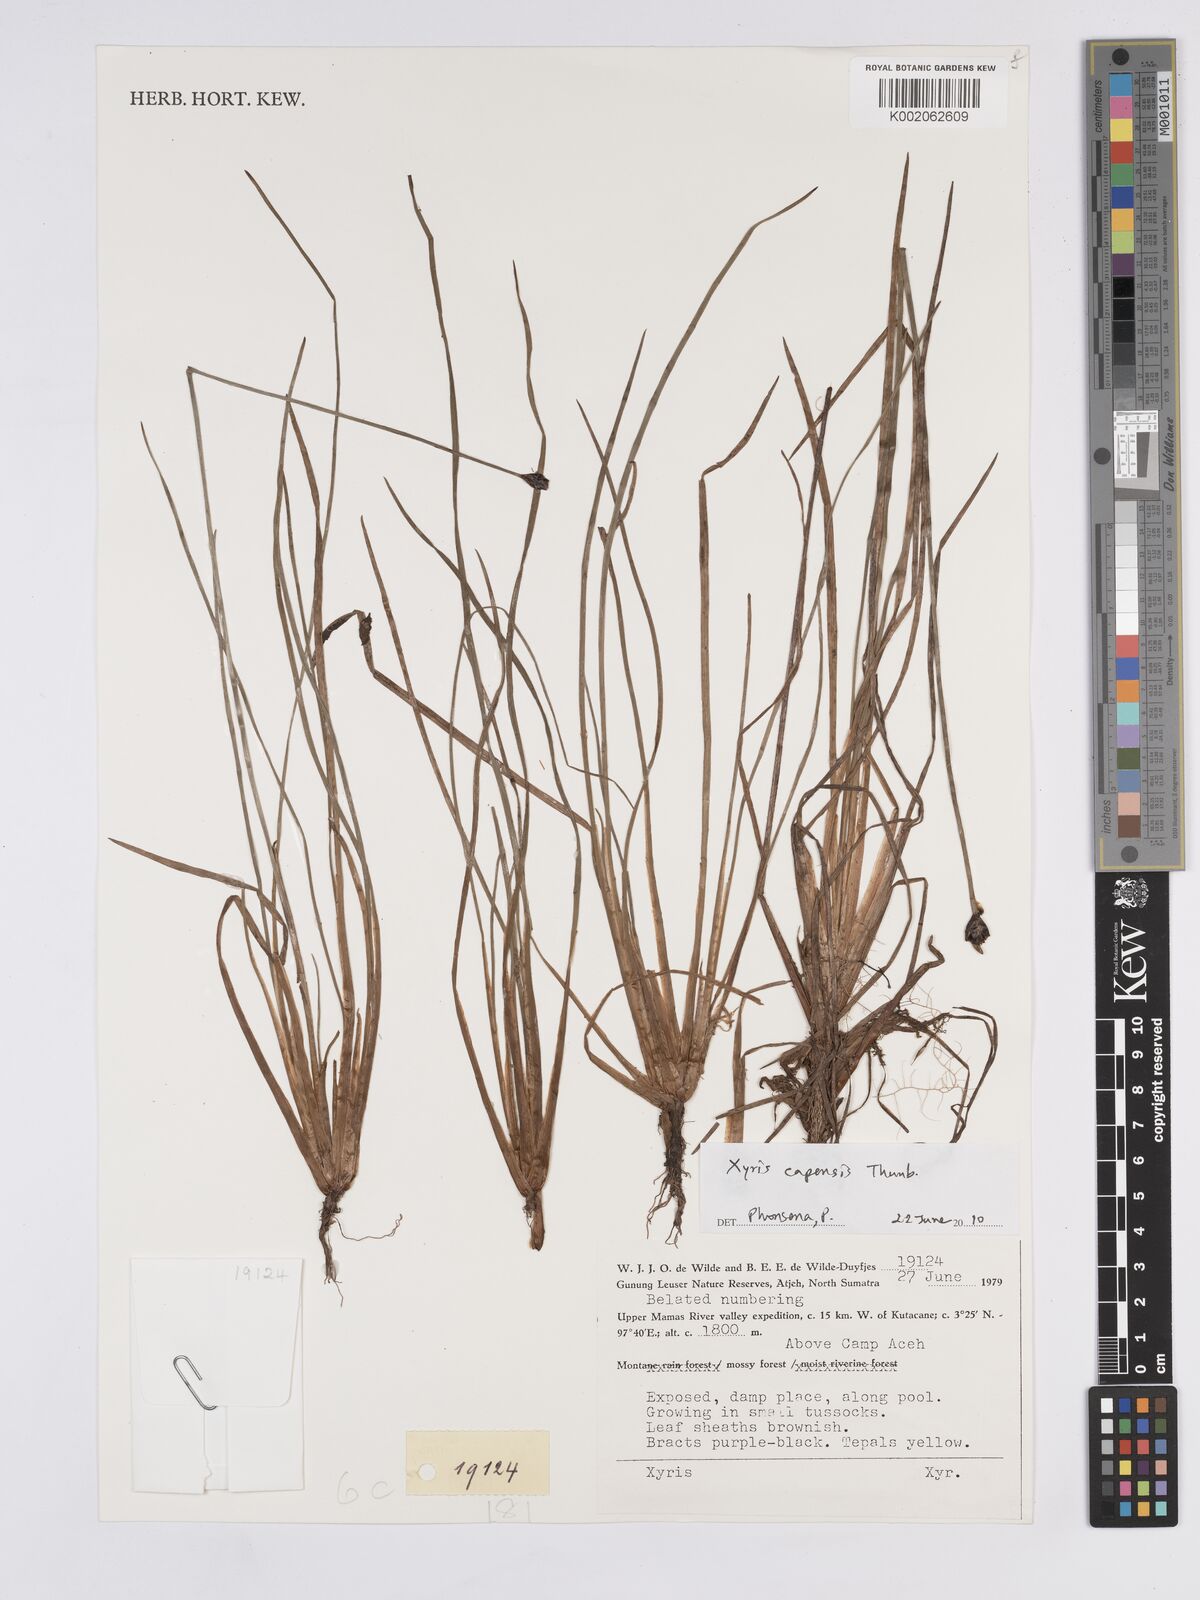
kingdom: Plantae
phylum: Tracheophyta
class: Liliopsida
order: Poales
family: Xyridaceae
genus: Xyris
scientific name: Xyris capensis
